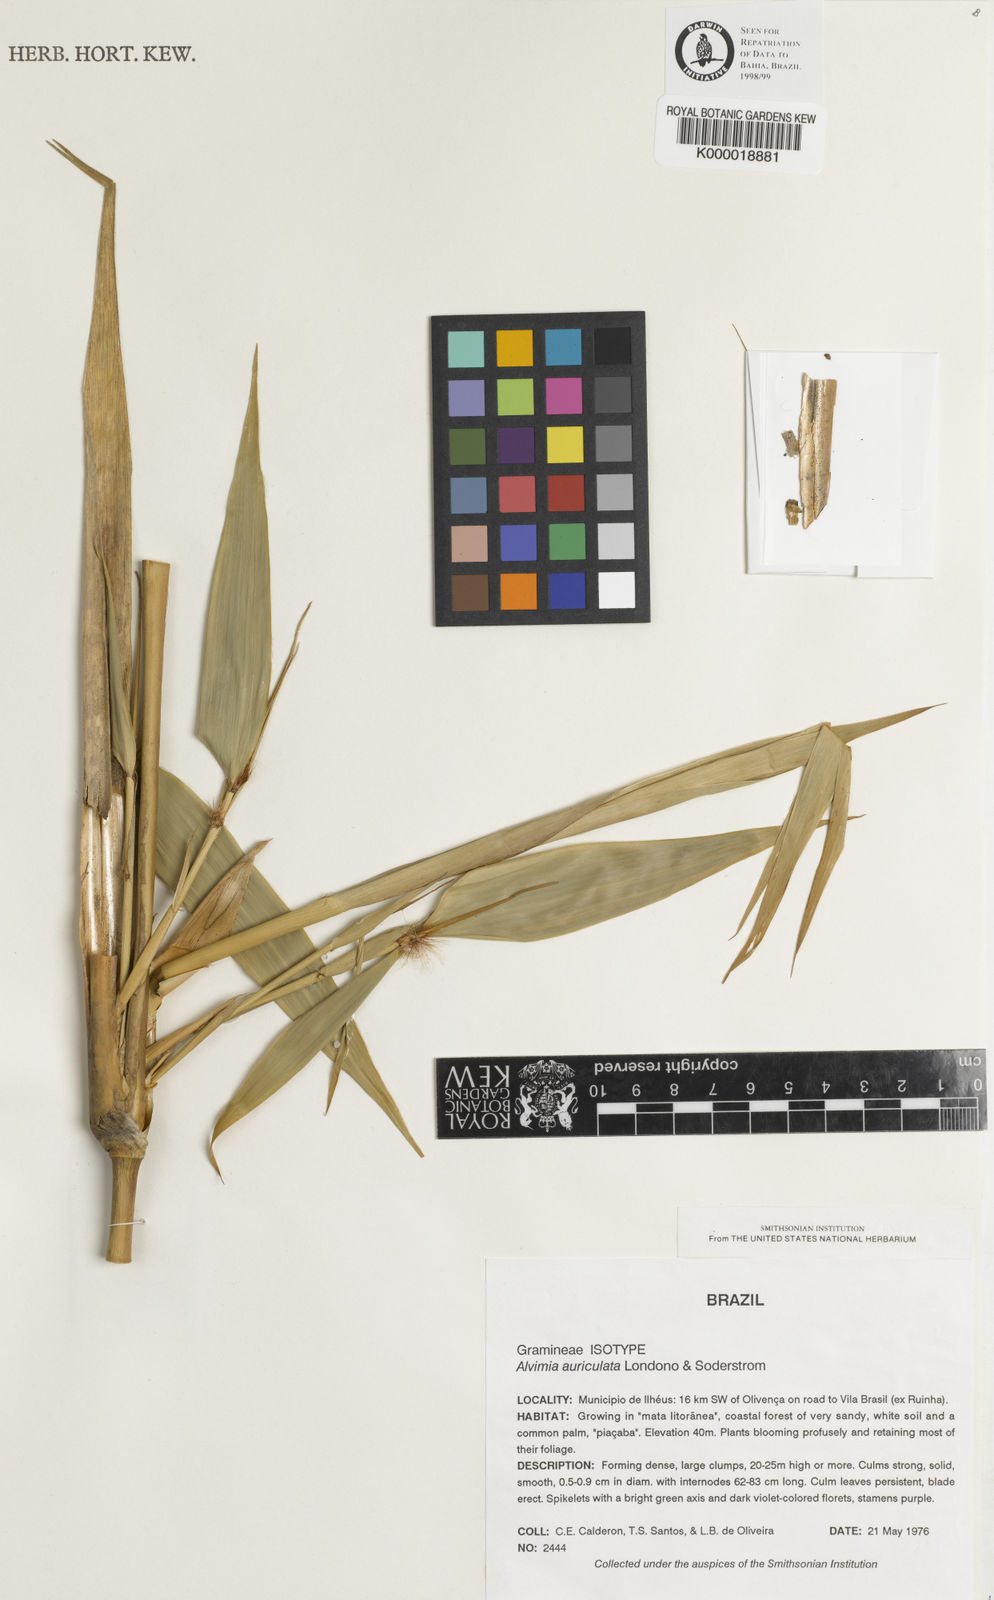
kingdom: Plantae
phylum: Tracheophyta
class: Liliopsida
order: Poales
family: Poaceae
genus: Alvimia
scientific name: Alvimia
